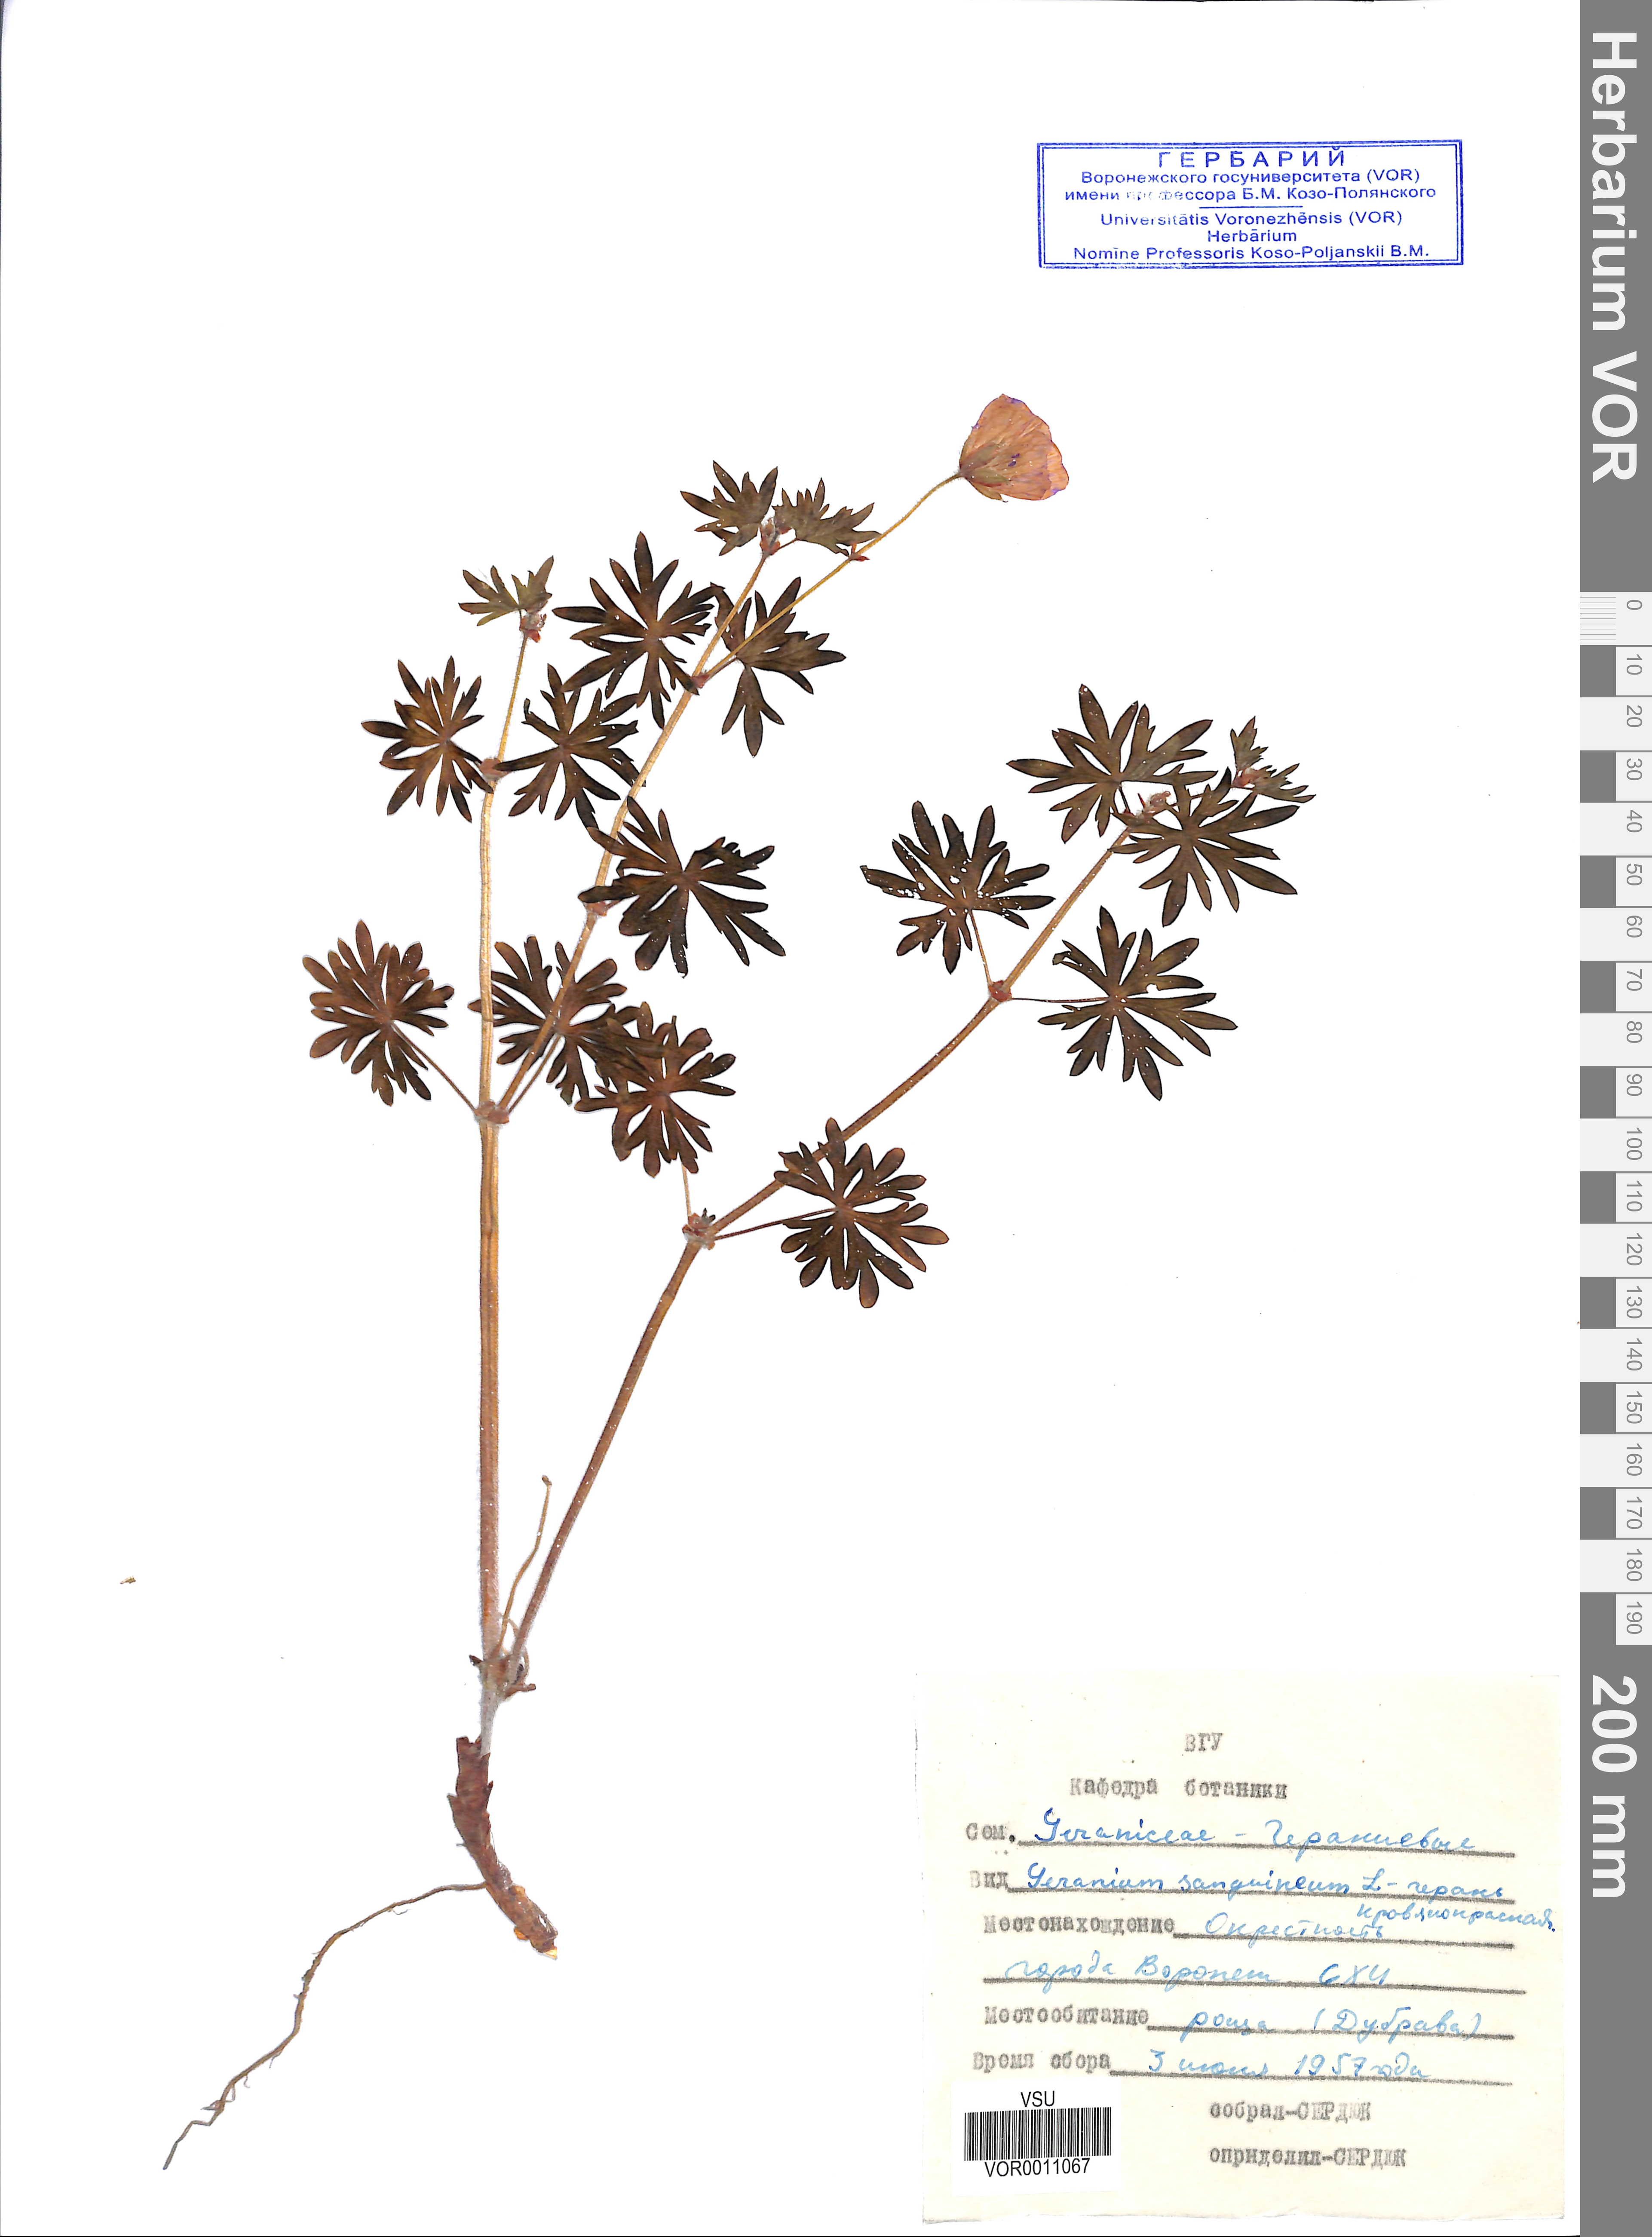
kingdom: Plantae
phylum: Tracheophyta
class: Magnoliopsida
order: Geraniales
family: Geraniaceae
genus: Geranium
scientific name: Geranium sanguineum
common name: Bloody crane's-bill
